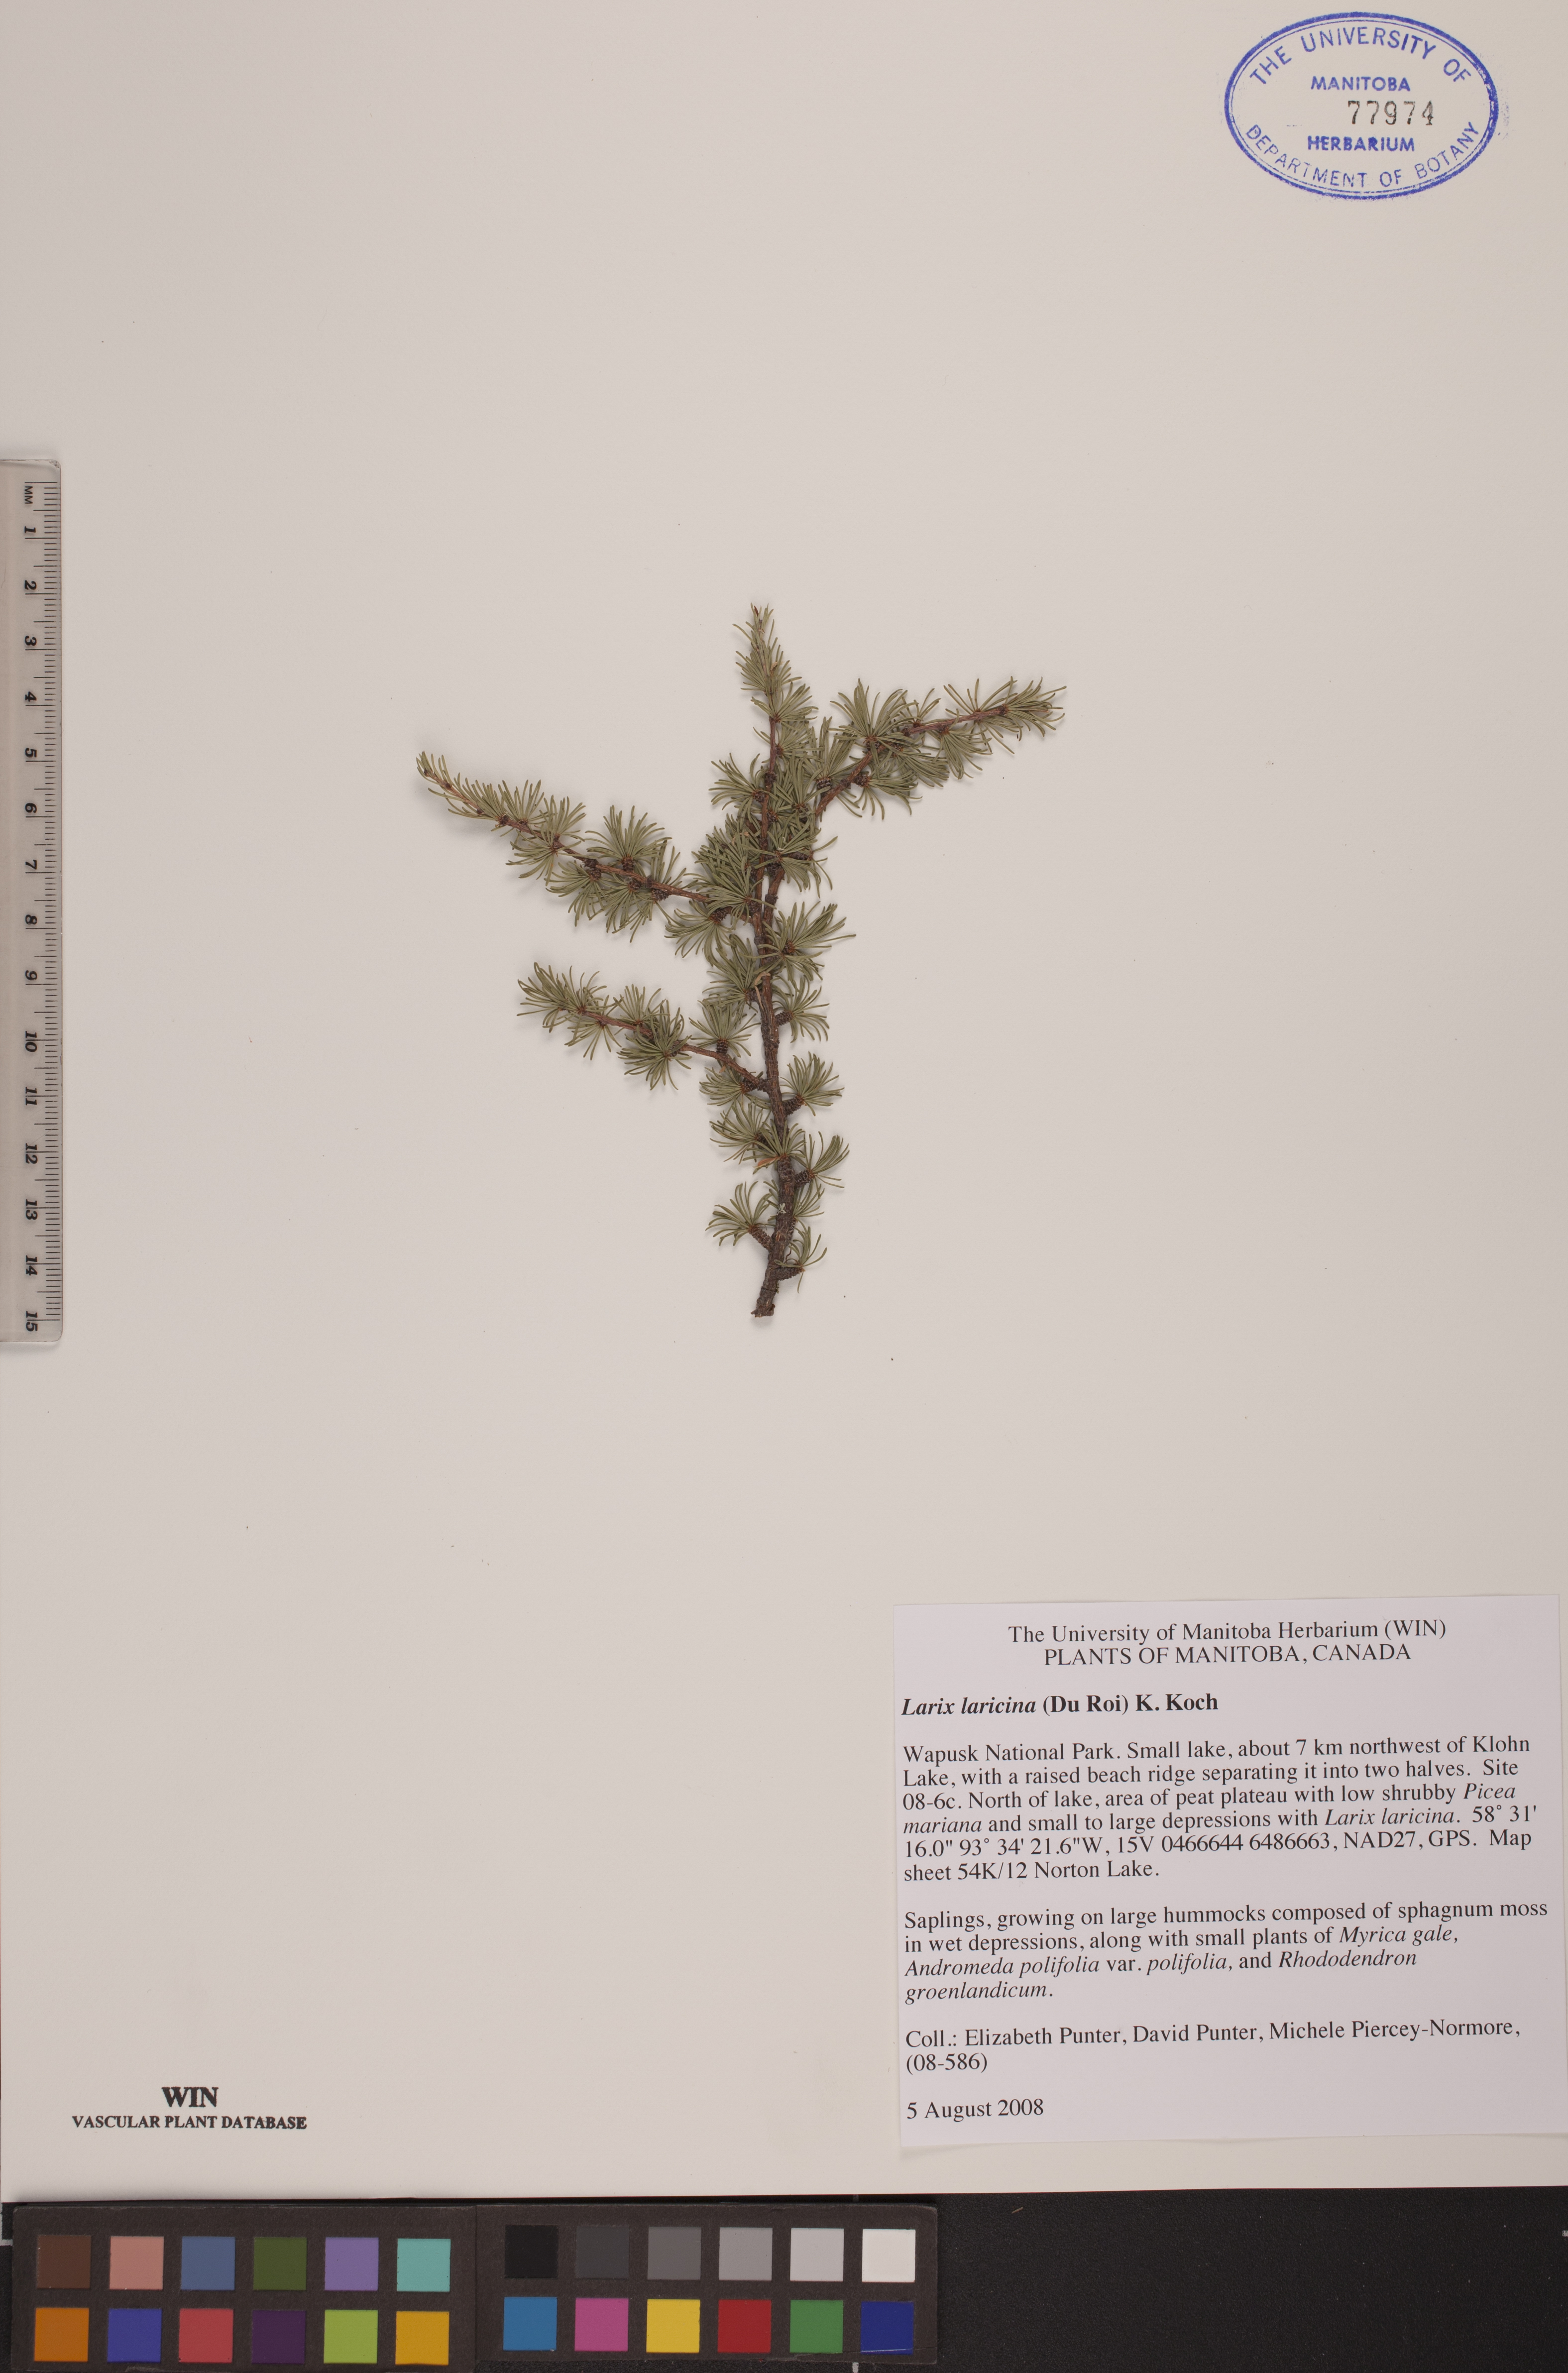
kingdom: Plantae
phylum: Tracheophyta
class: Pinopsida
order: Pinales
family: Pinaceae
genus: Larix
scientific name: Larix laricina
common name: American larch
